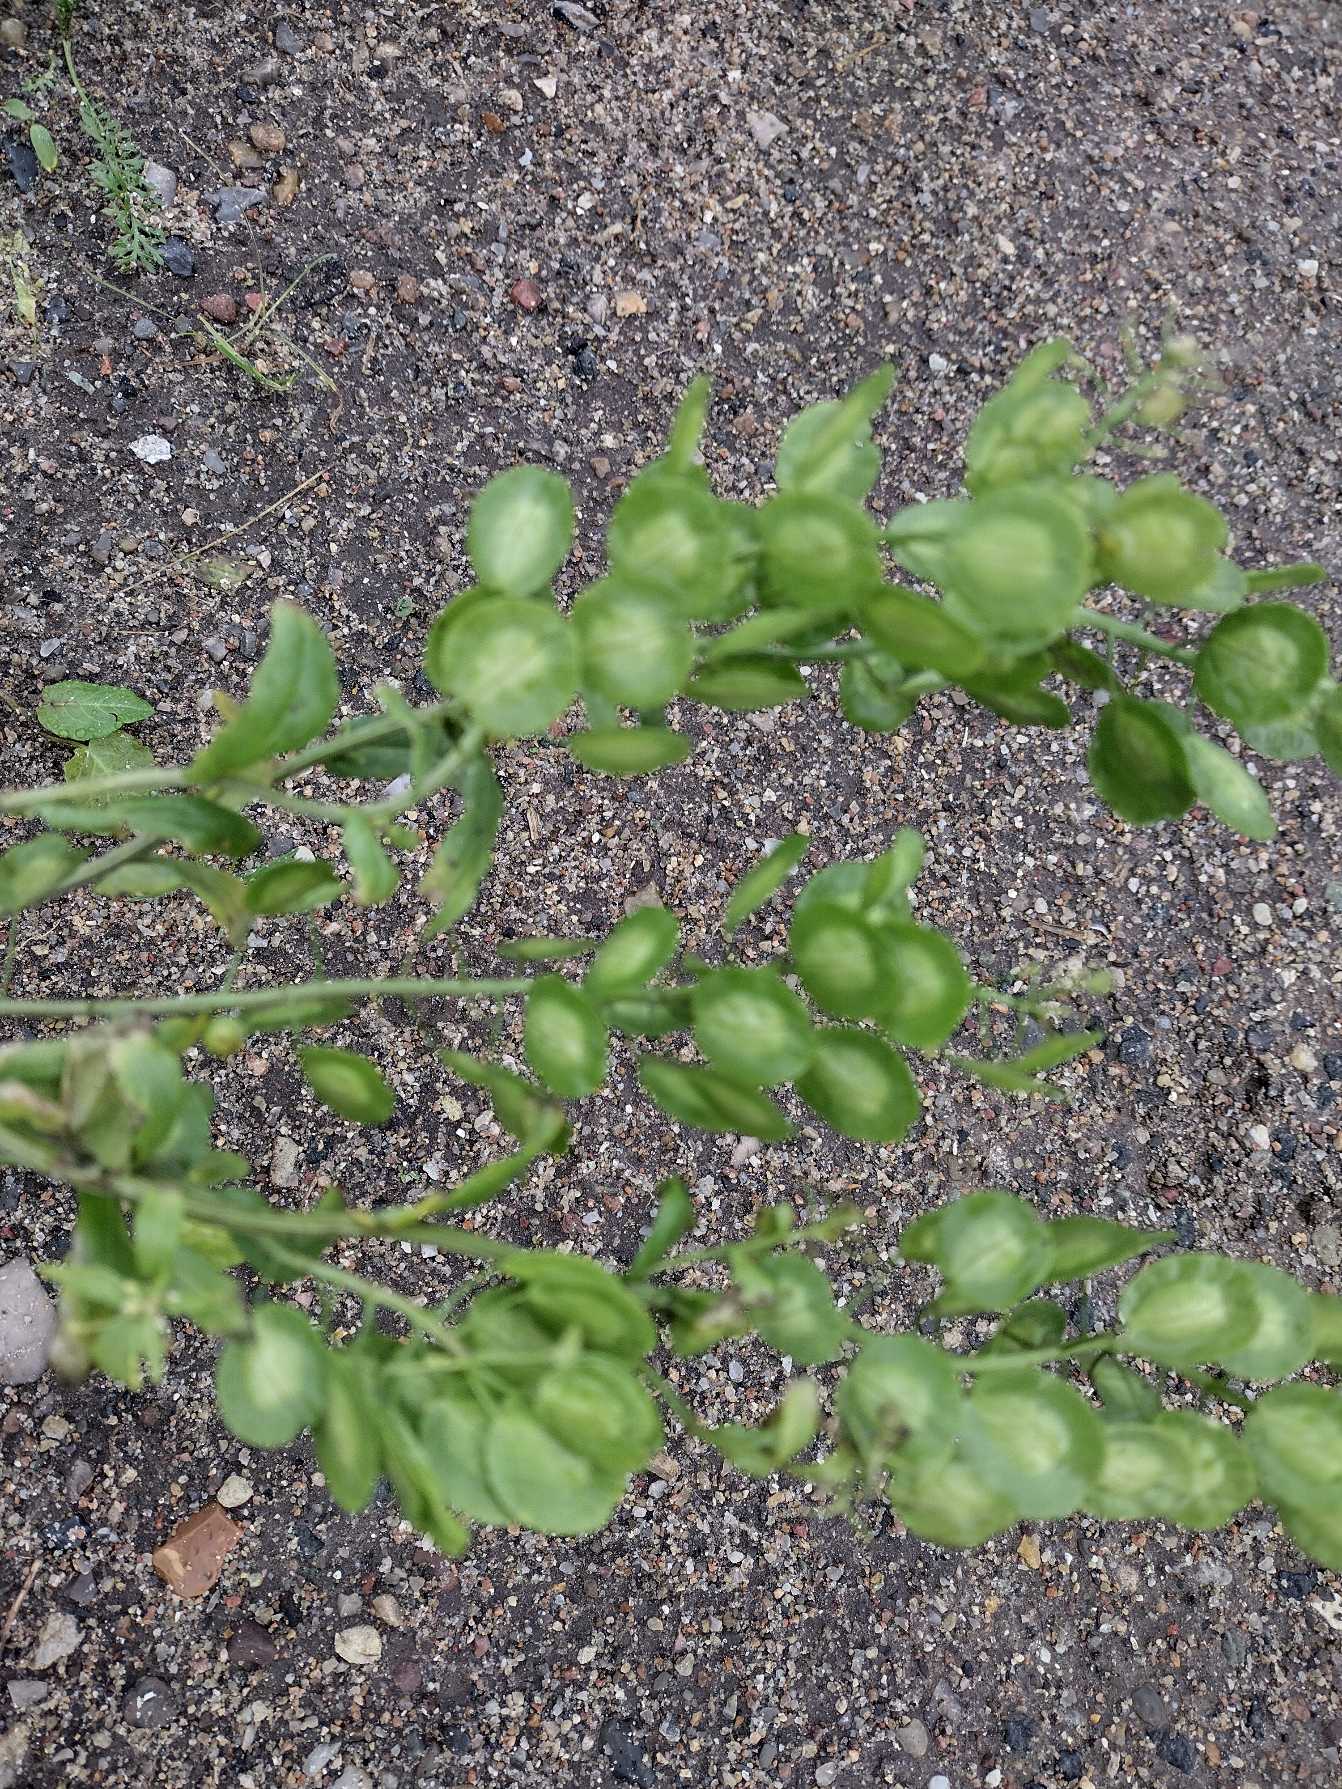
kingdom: Plantae
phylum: Tracheophyta
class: Magnoliopsida
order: Brassicales
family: Brassicaceae
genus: Thlaspi
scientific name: Thlaspi arvense
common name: Almindelig pengeurt
